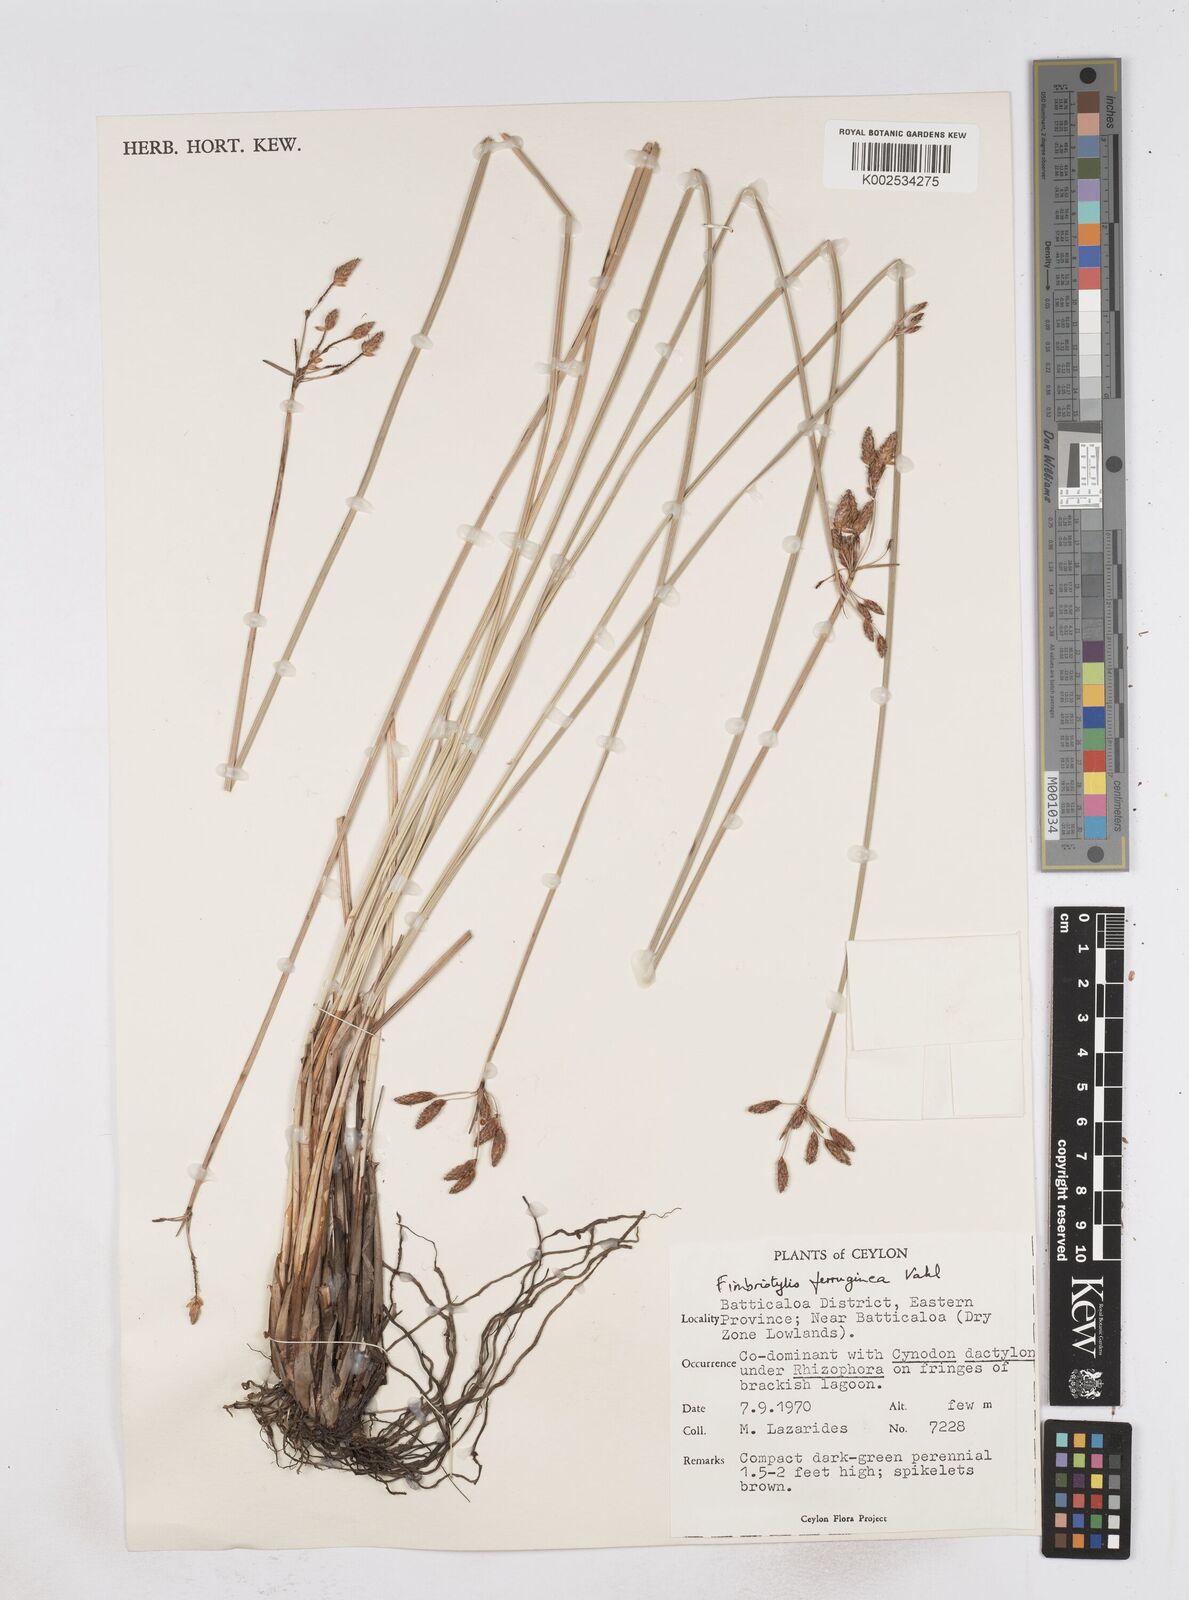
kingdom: Plantae
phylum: Tracheophyta
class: Liliopsida
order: Poales
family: Cyperaceae
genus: Fimbristylis
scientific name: Fimbristylis ferruginea
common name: West indian fimbry
